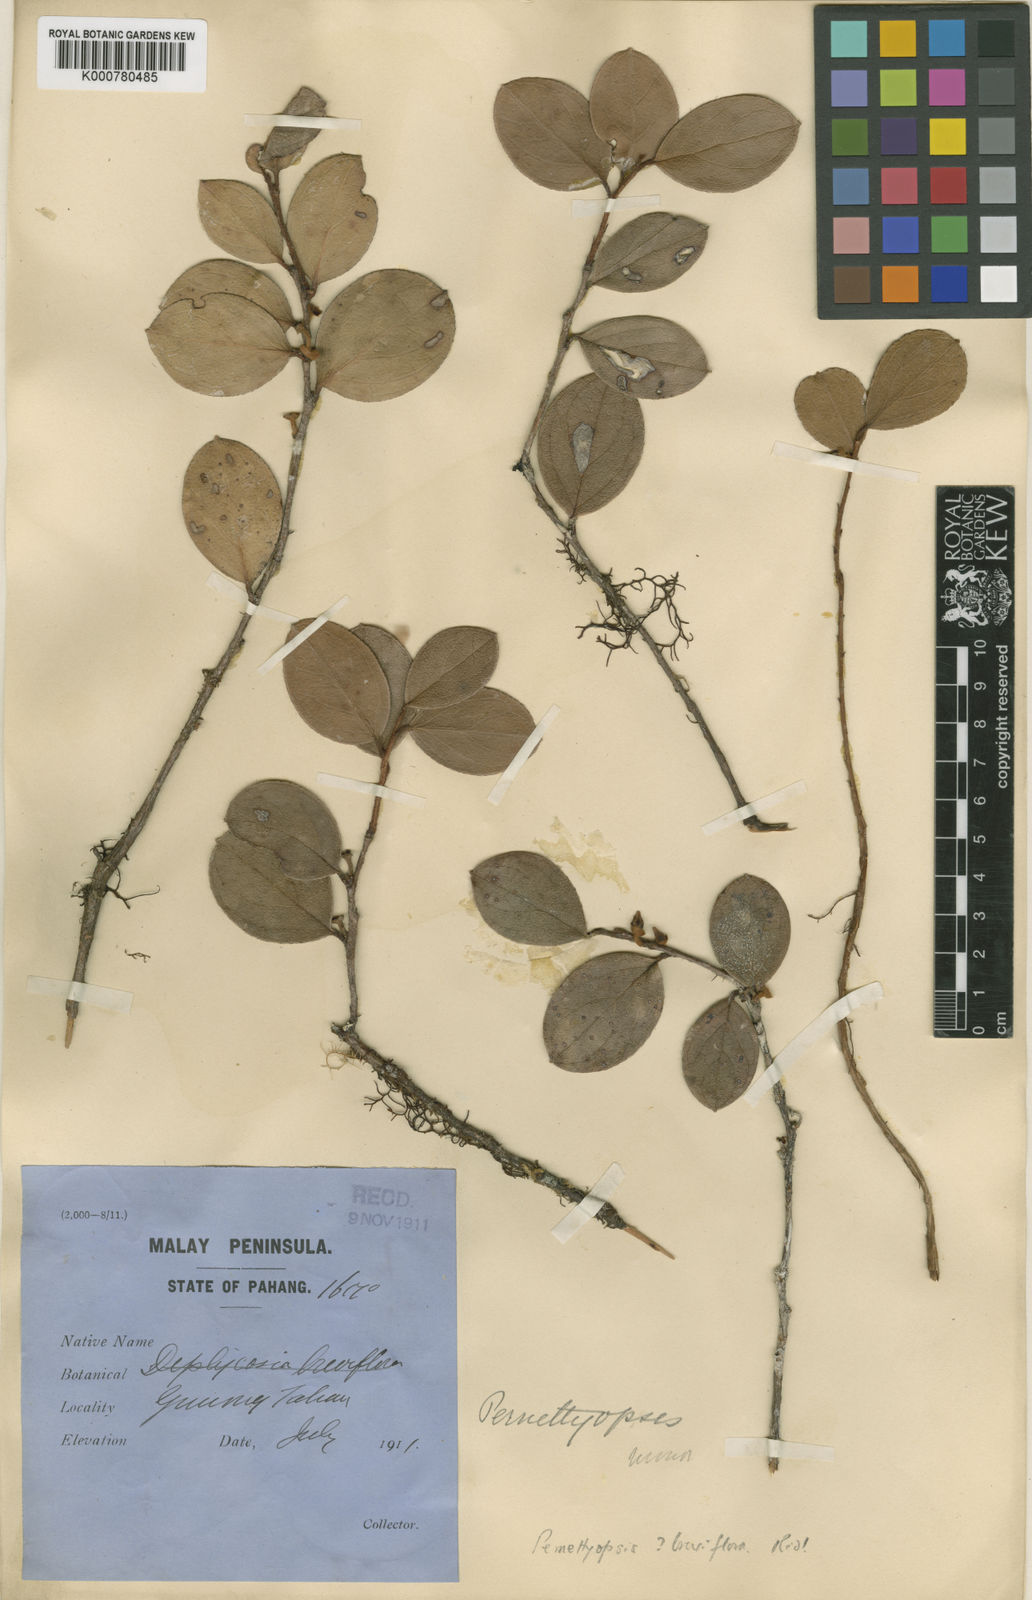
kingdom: Plantae
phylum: Tracheophyta
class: Magnoliopsida
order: Ericales
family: Ericaceae
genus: Gaultheria
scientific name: Gaultheria macrocalyx
